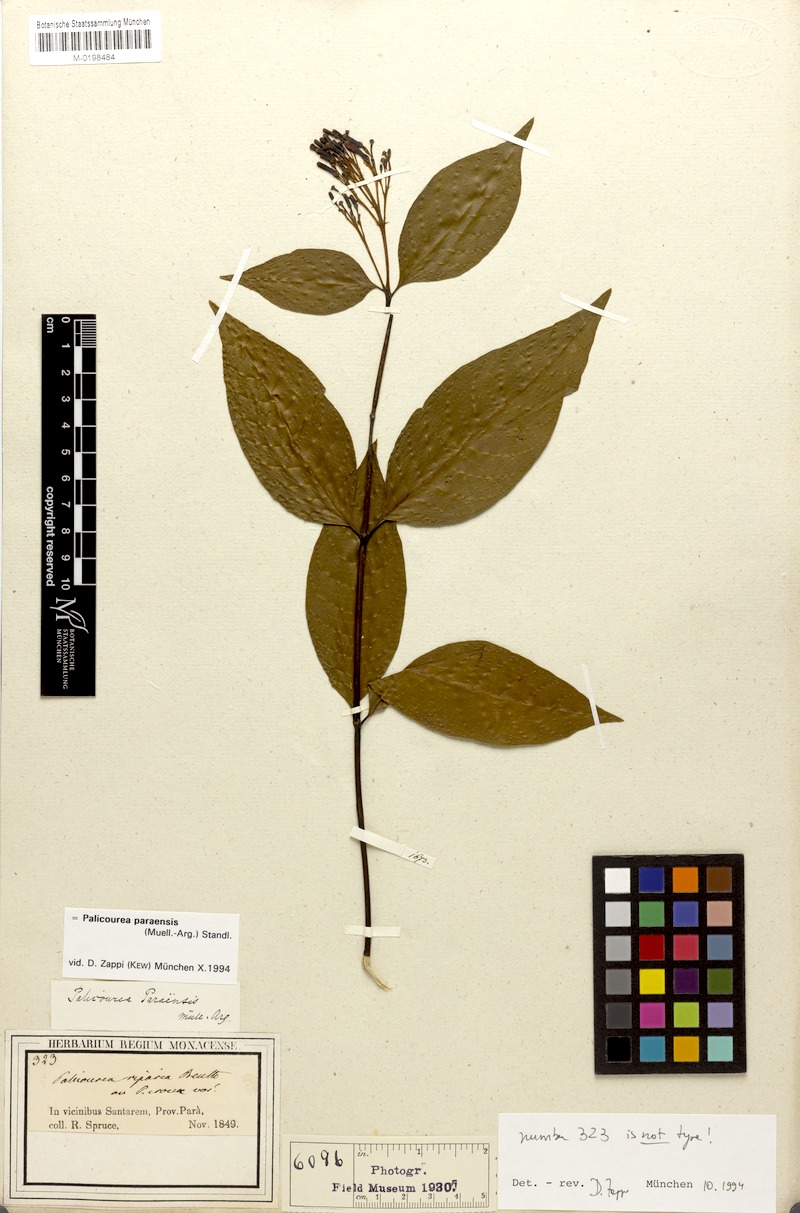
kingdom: Plantae
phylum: Tracheophyta
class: Magnoliopsida
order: Gentianales
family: Rubiaceae
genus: Palicourea
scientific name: Palicourea paraensis
